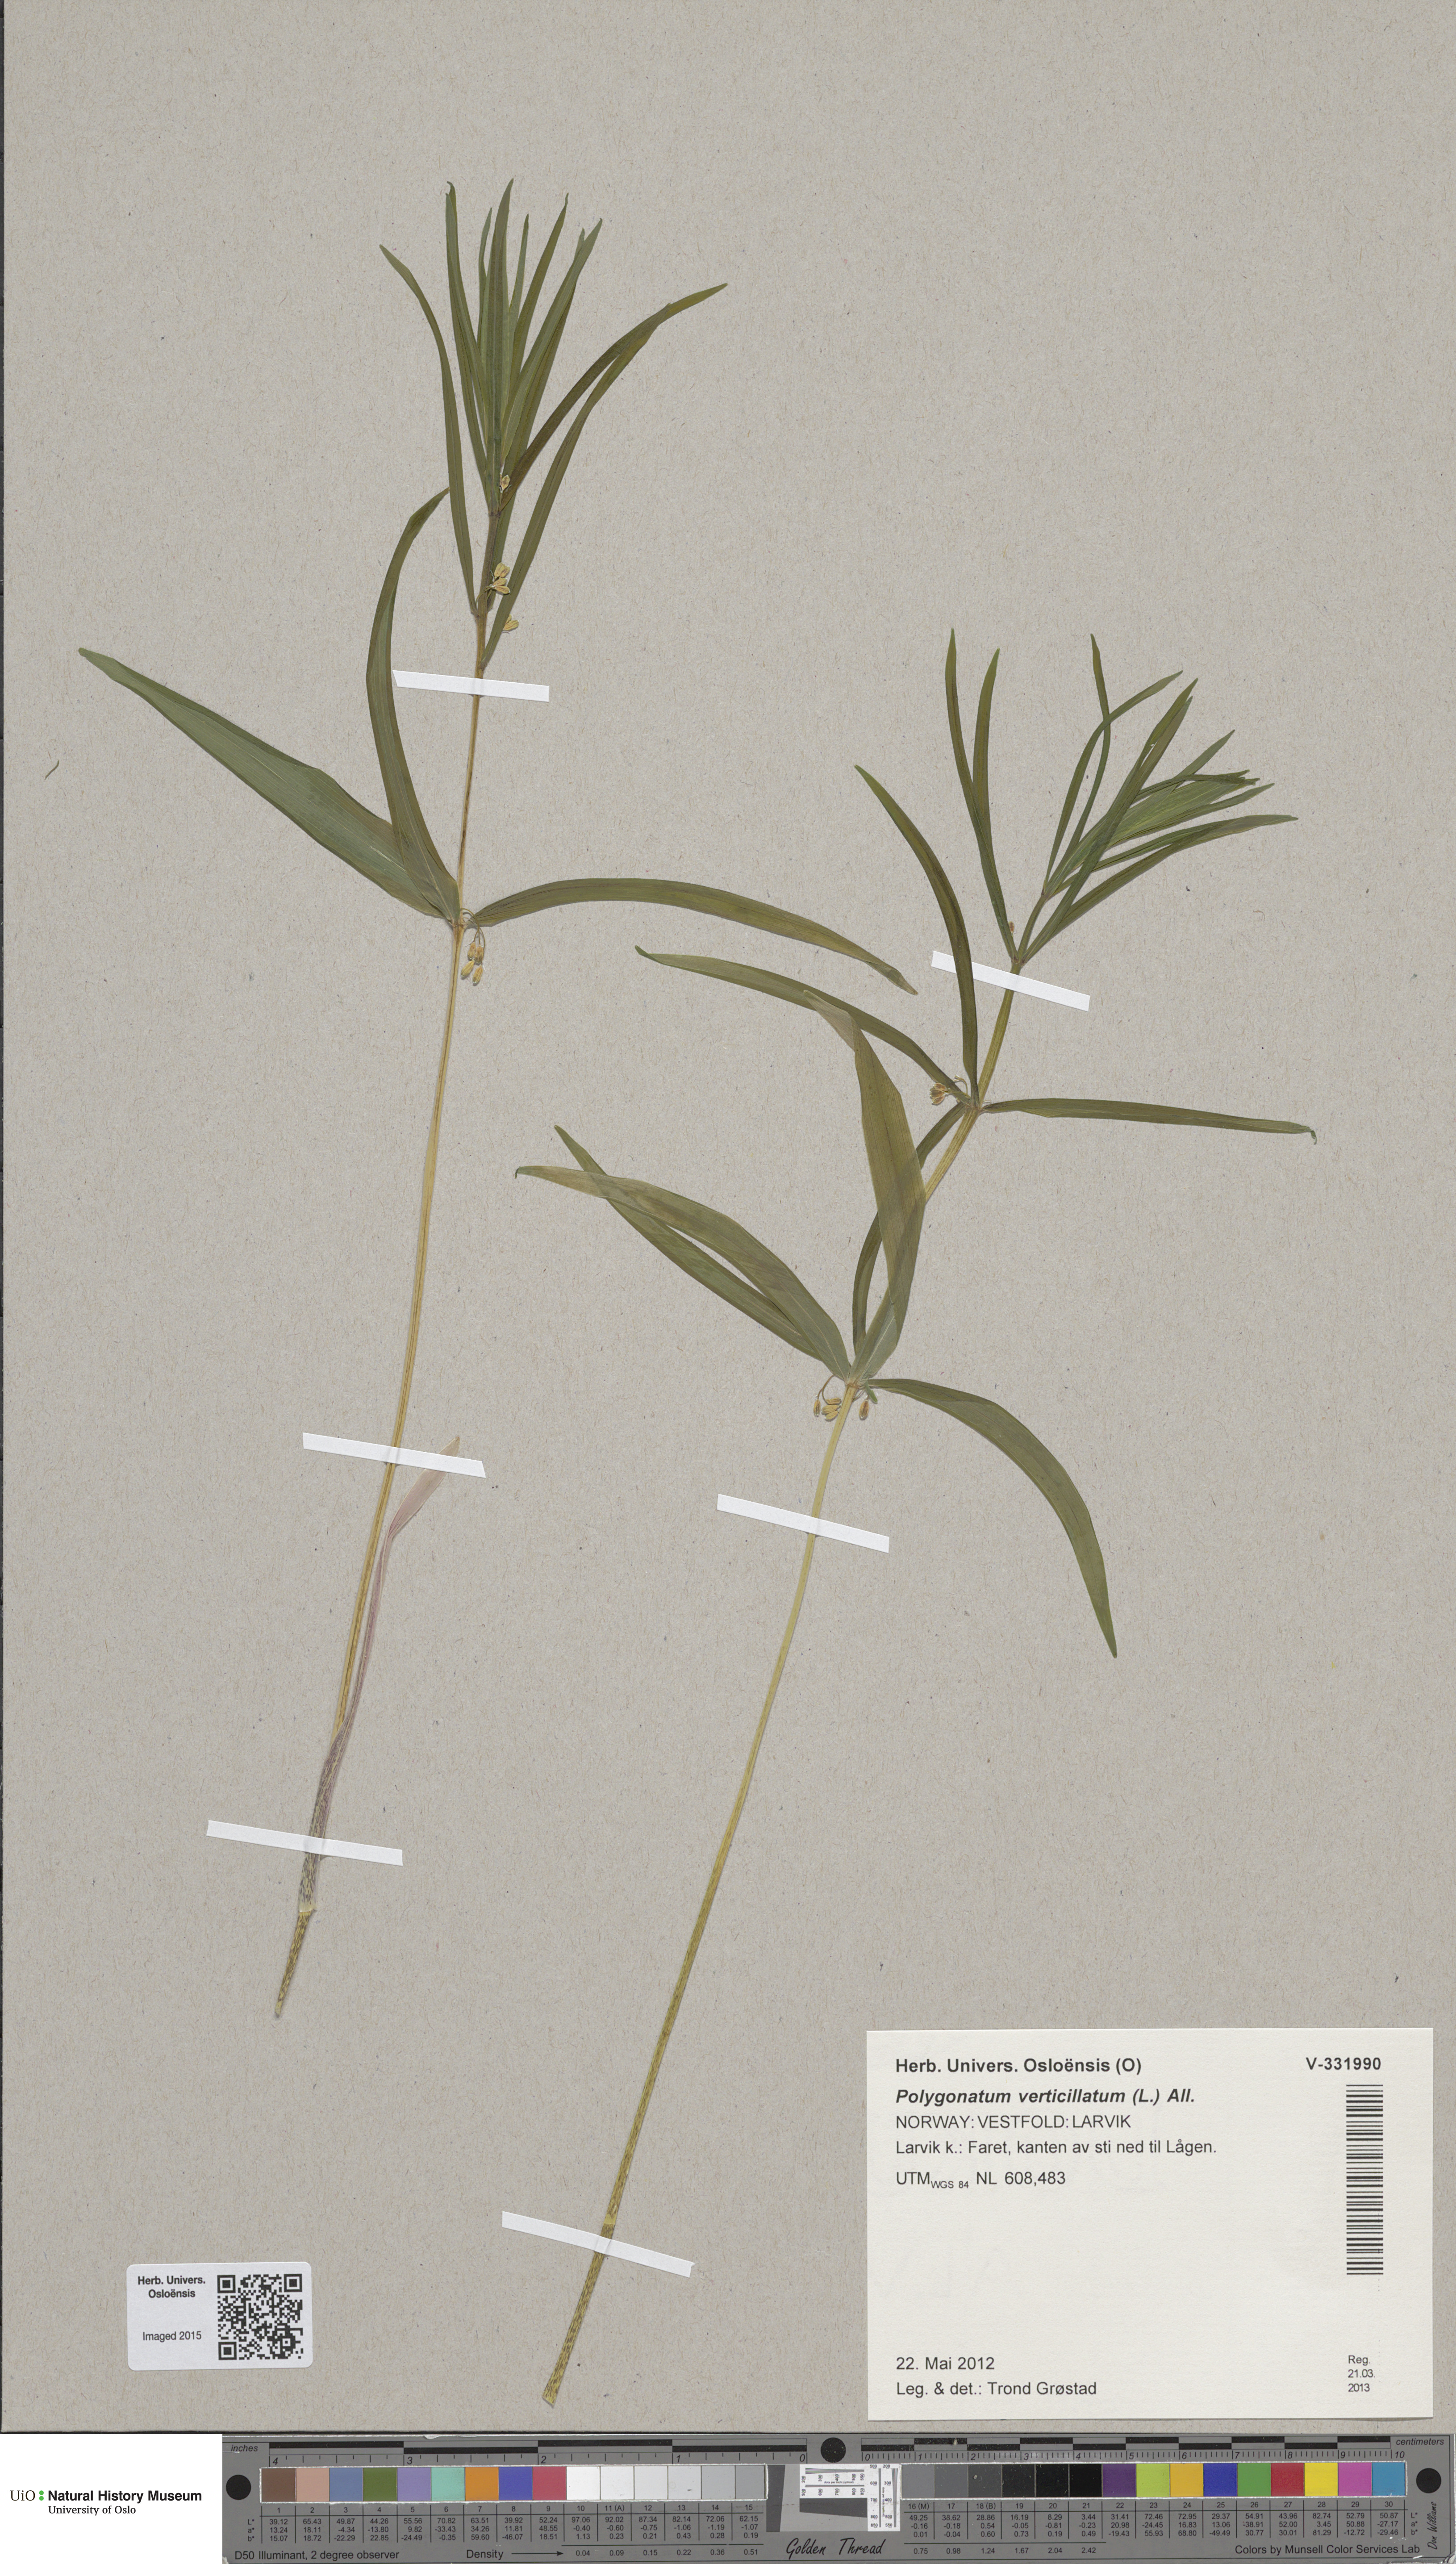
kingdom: Plantae
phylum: Tracheophyta
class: Liliopsida
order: Asparagales
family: Asparagaceae
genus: Polygonatum
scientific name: Polygonatum verticillatum
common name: Whorled solomon's-seal
